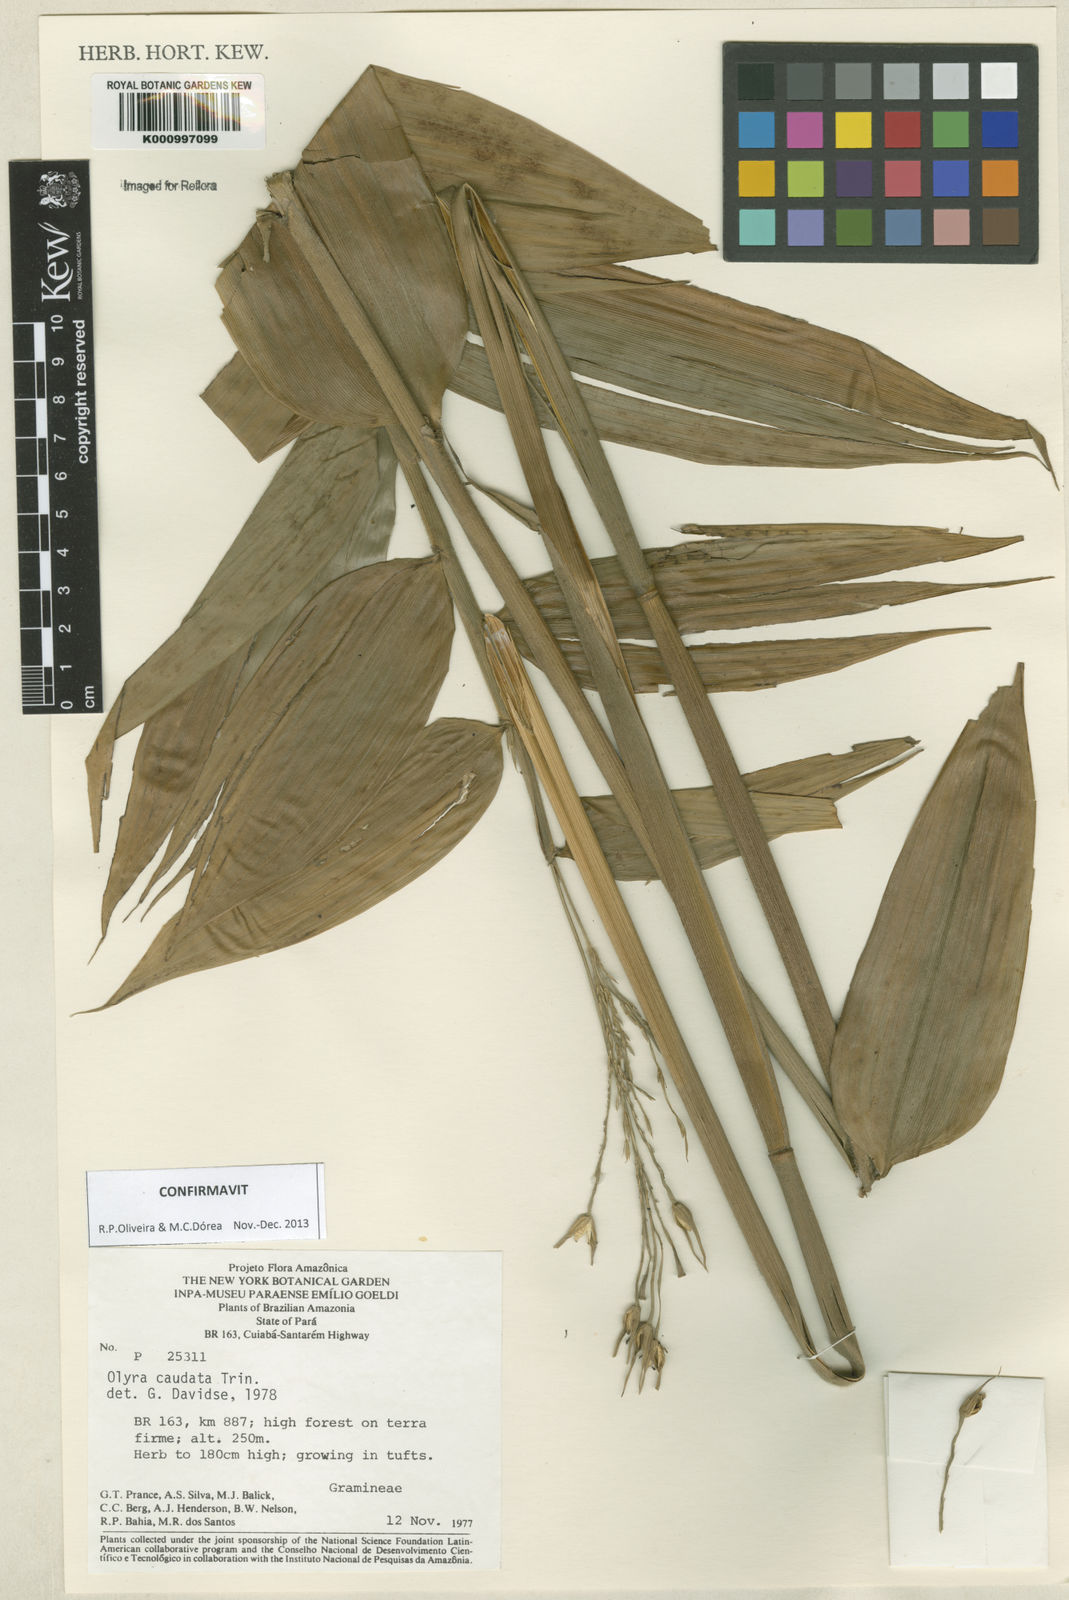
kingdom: Plantae
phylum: Tracheophyta
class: Liliopsida
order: Poales
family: Poaceae
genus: Olyra
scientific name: Olyra caudata
